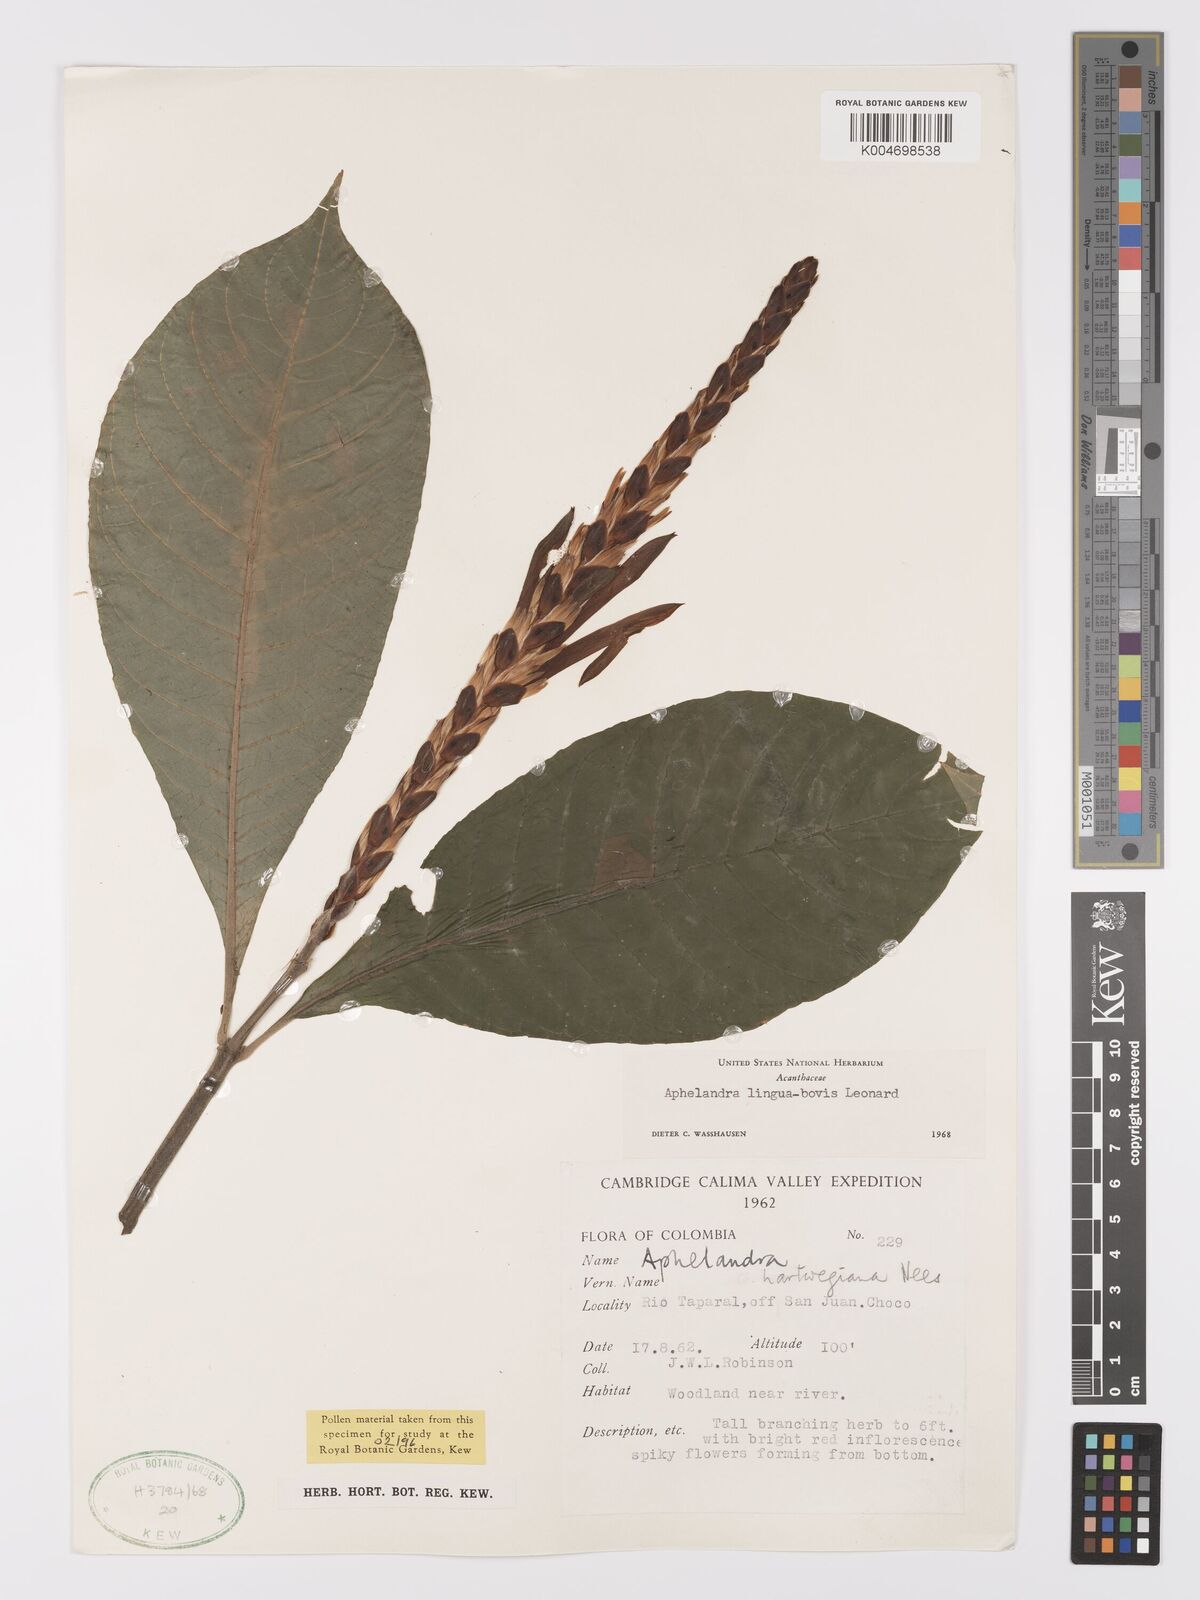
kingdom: Plantae
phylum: Tracheophyta
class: Magnoliopsida
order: Lamiales
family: Acanthaceae
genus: Aphelandra
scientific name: Aphelandra lingua-bovis
